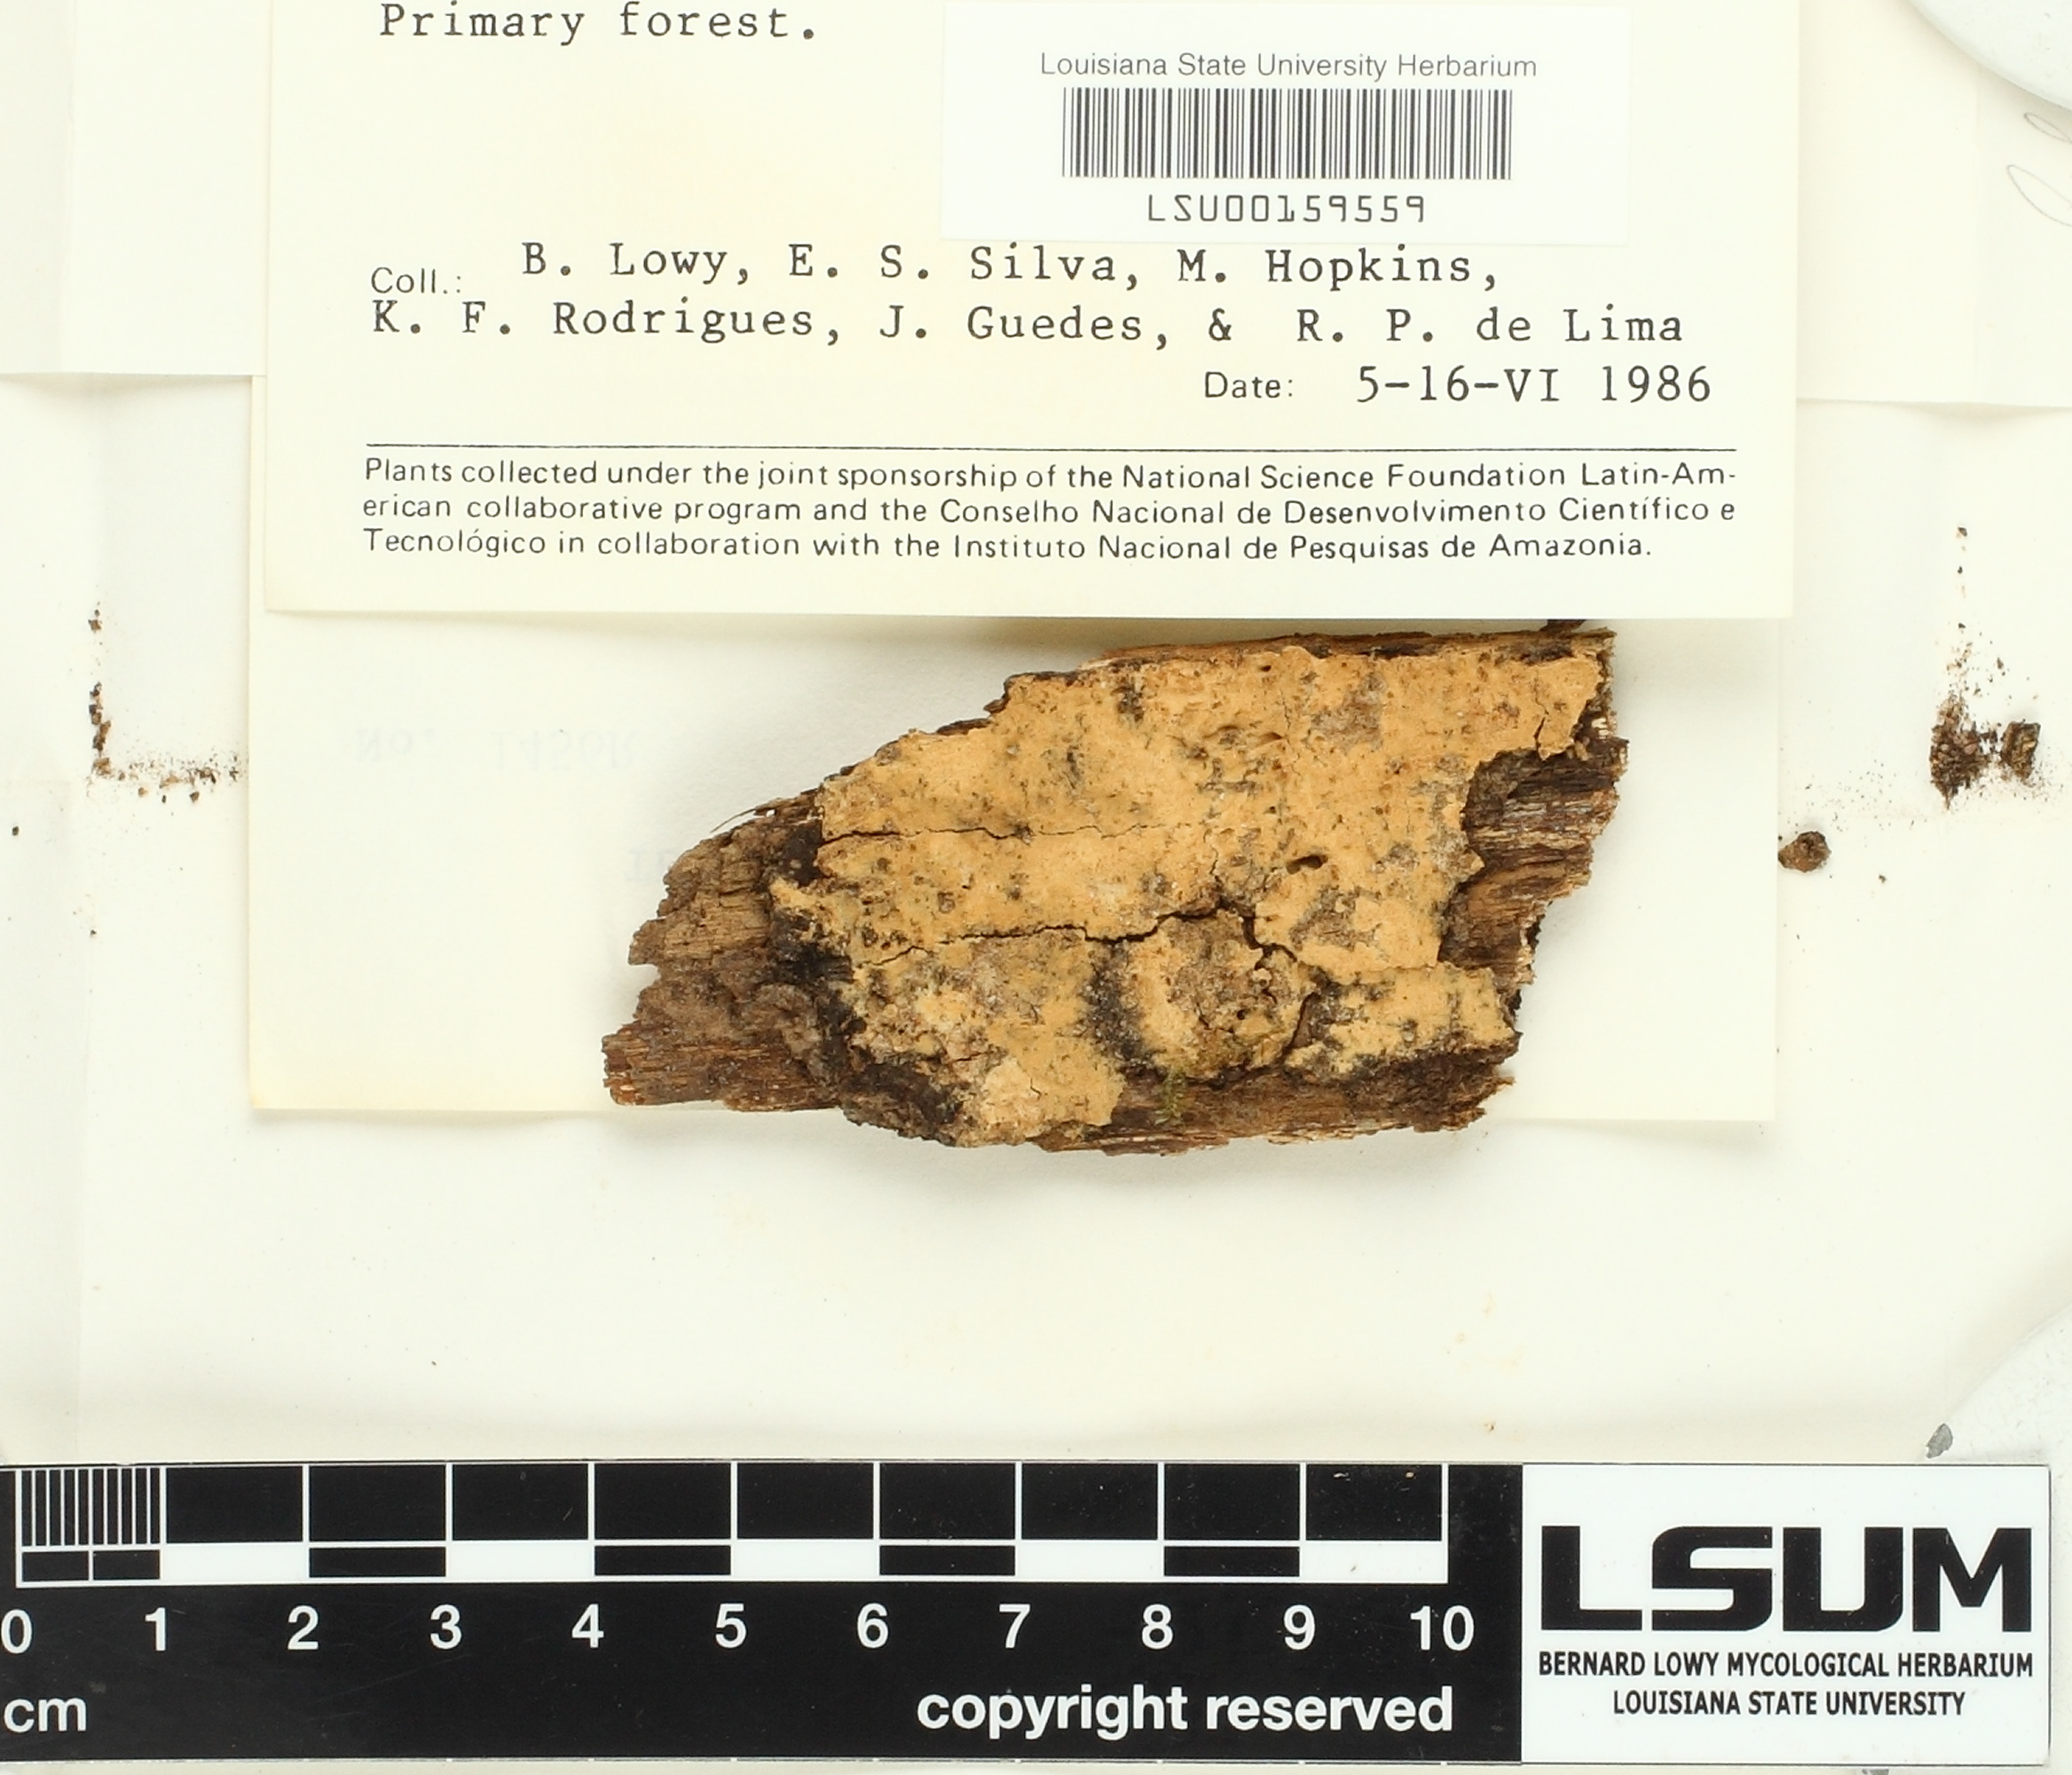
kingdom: Fungi
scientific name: Fungi
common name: Fungi
